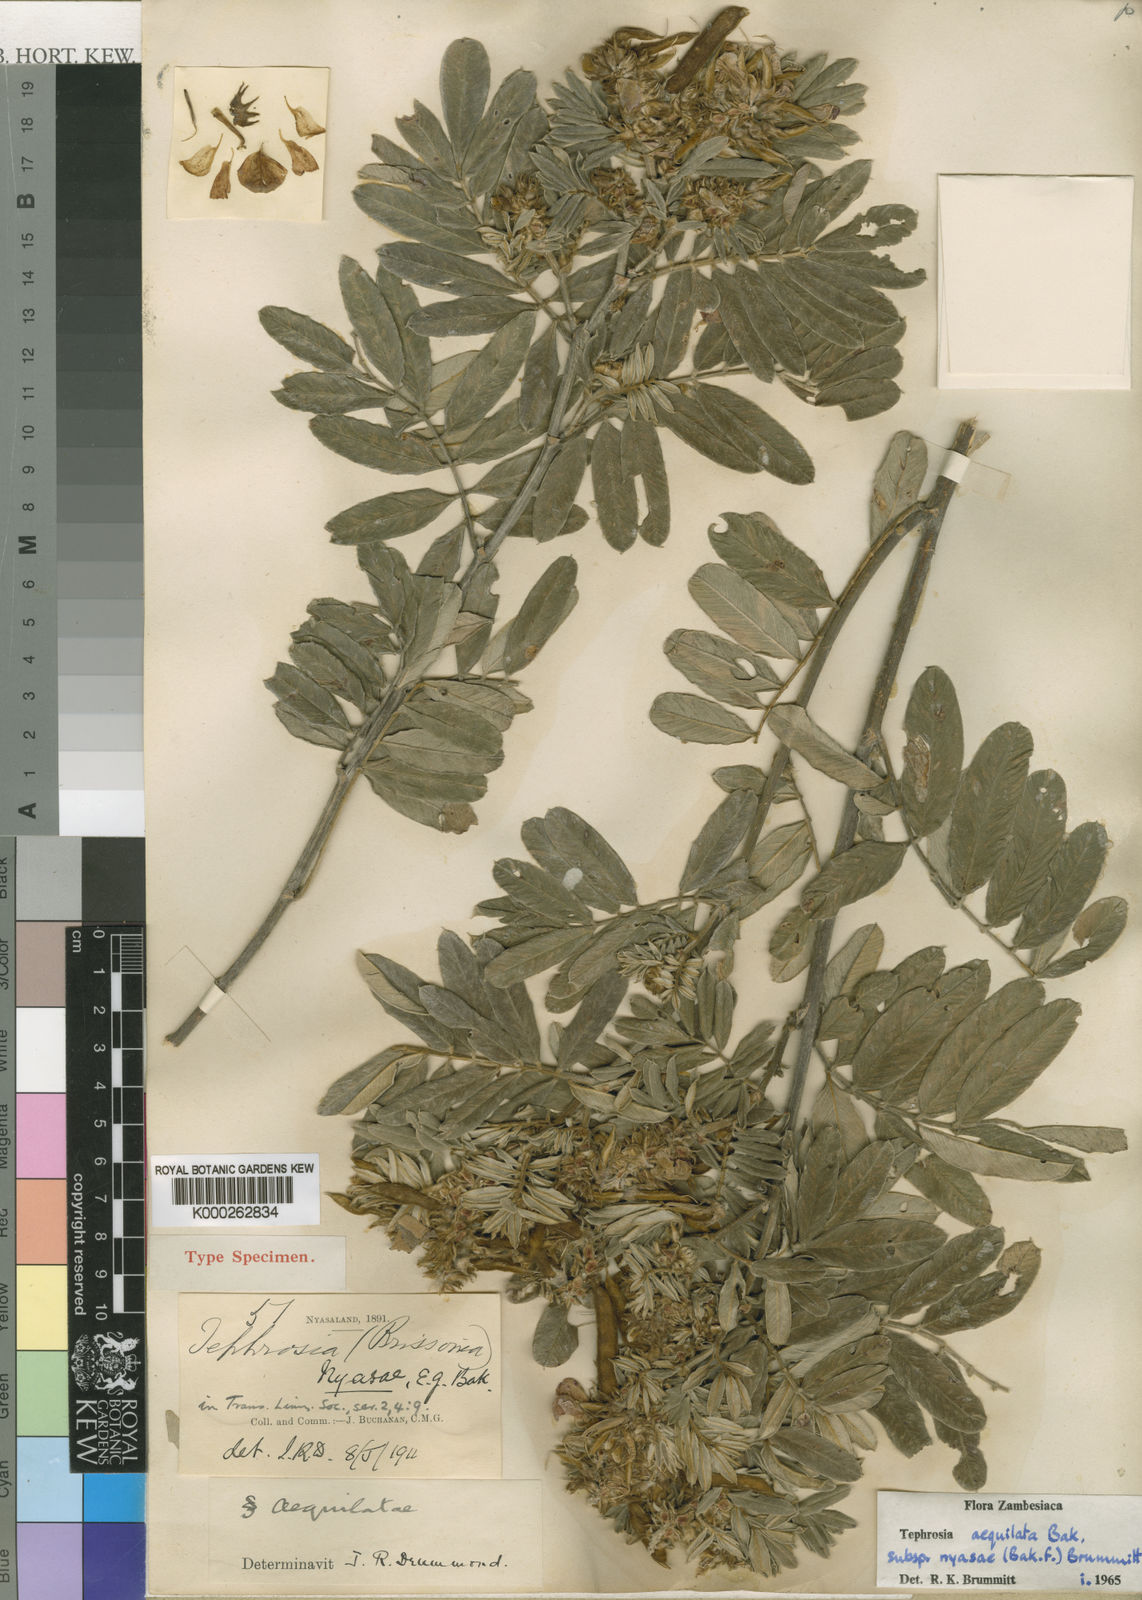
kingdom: Plantae
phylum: Tracheophyta
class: Magnoliopsida
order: Fabales
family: Fabaceae
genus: Tephrosia
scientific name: Tephrosia aequilata
